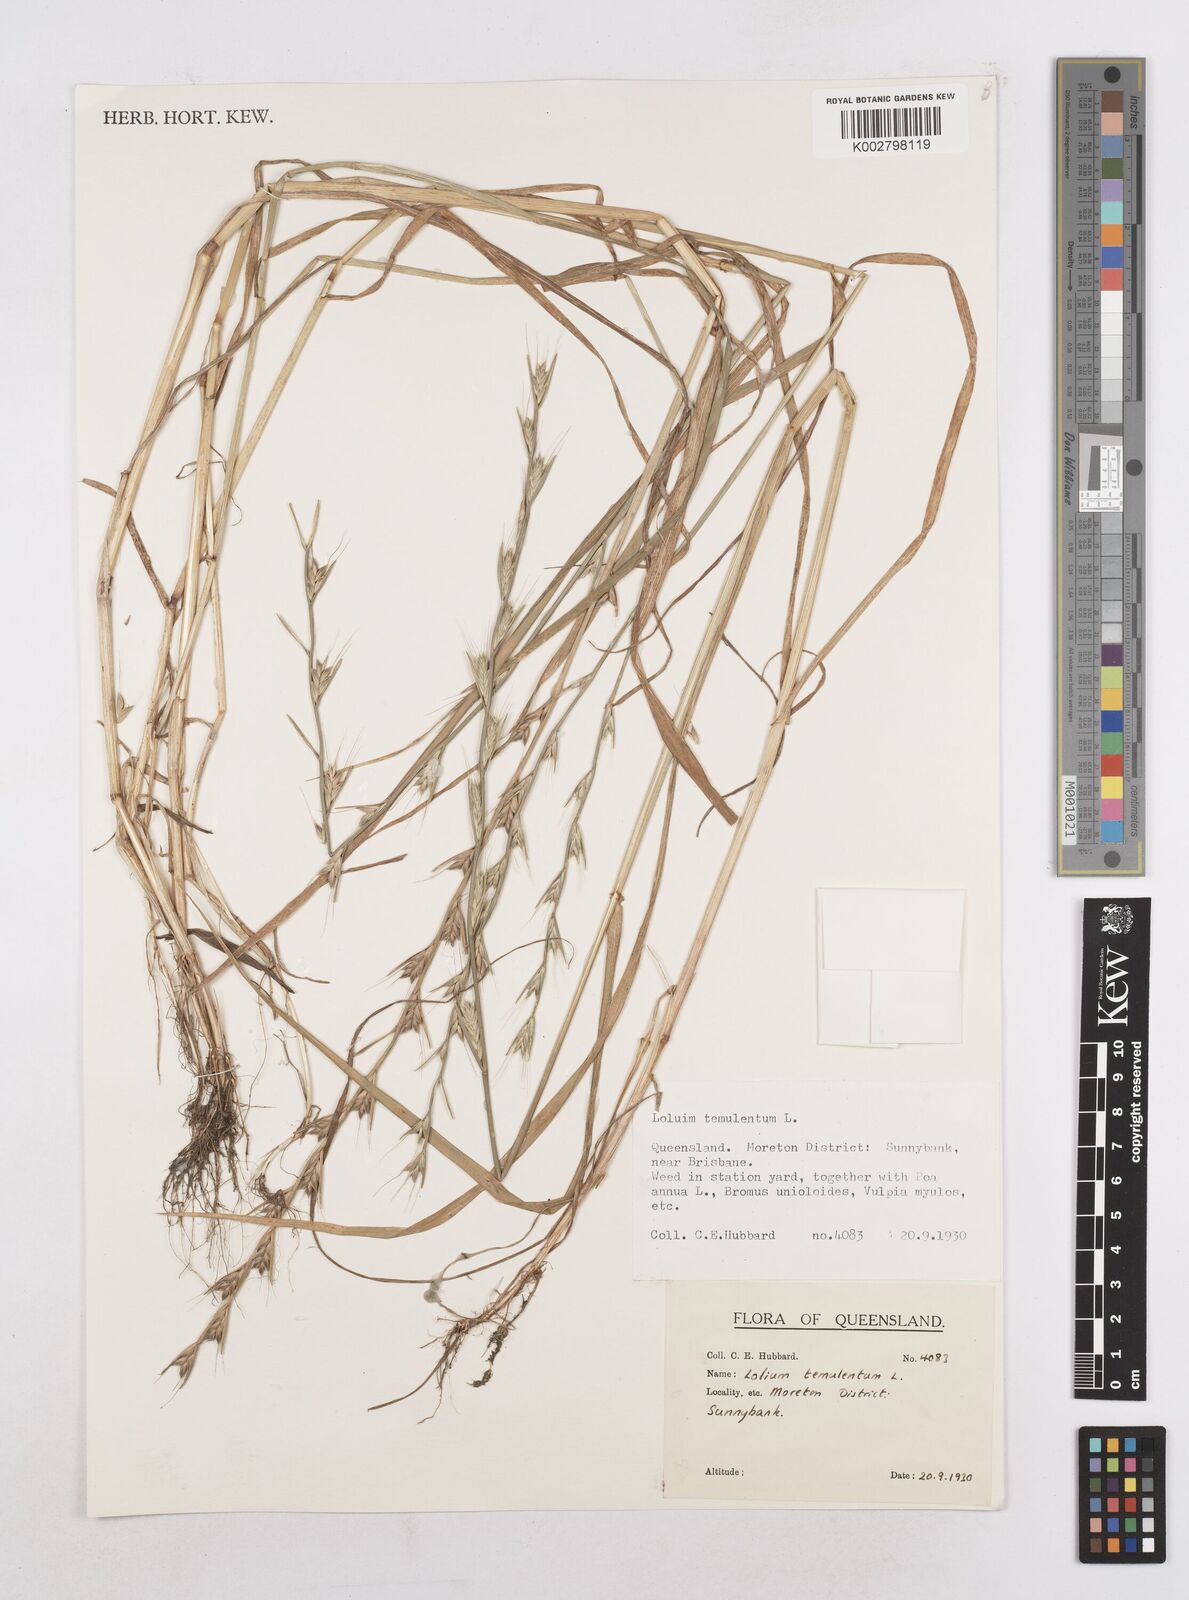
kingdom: Plantae
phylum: Tracheophyta
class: Liliopsida
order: Poales
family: Poaceae
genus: Lolium
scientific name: Lolium temulentum
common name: Darnel
